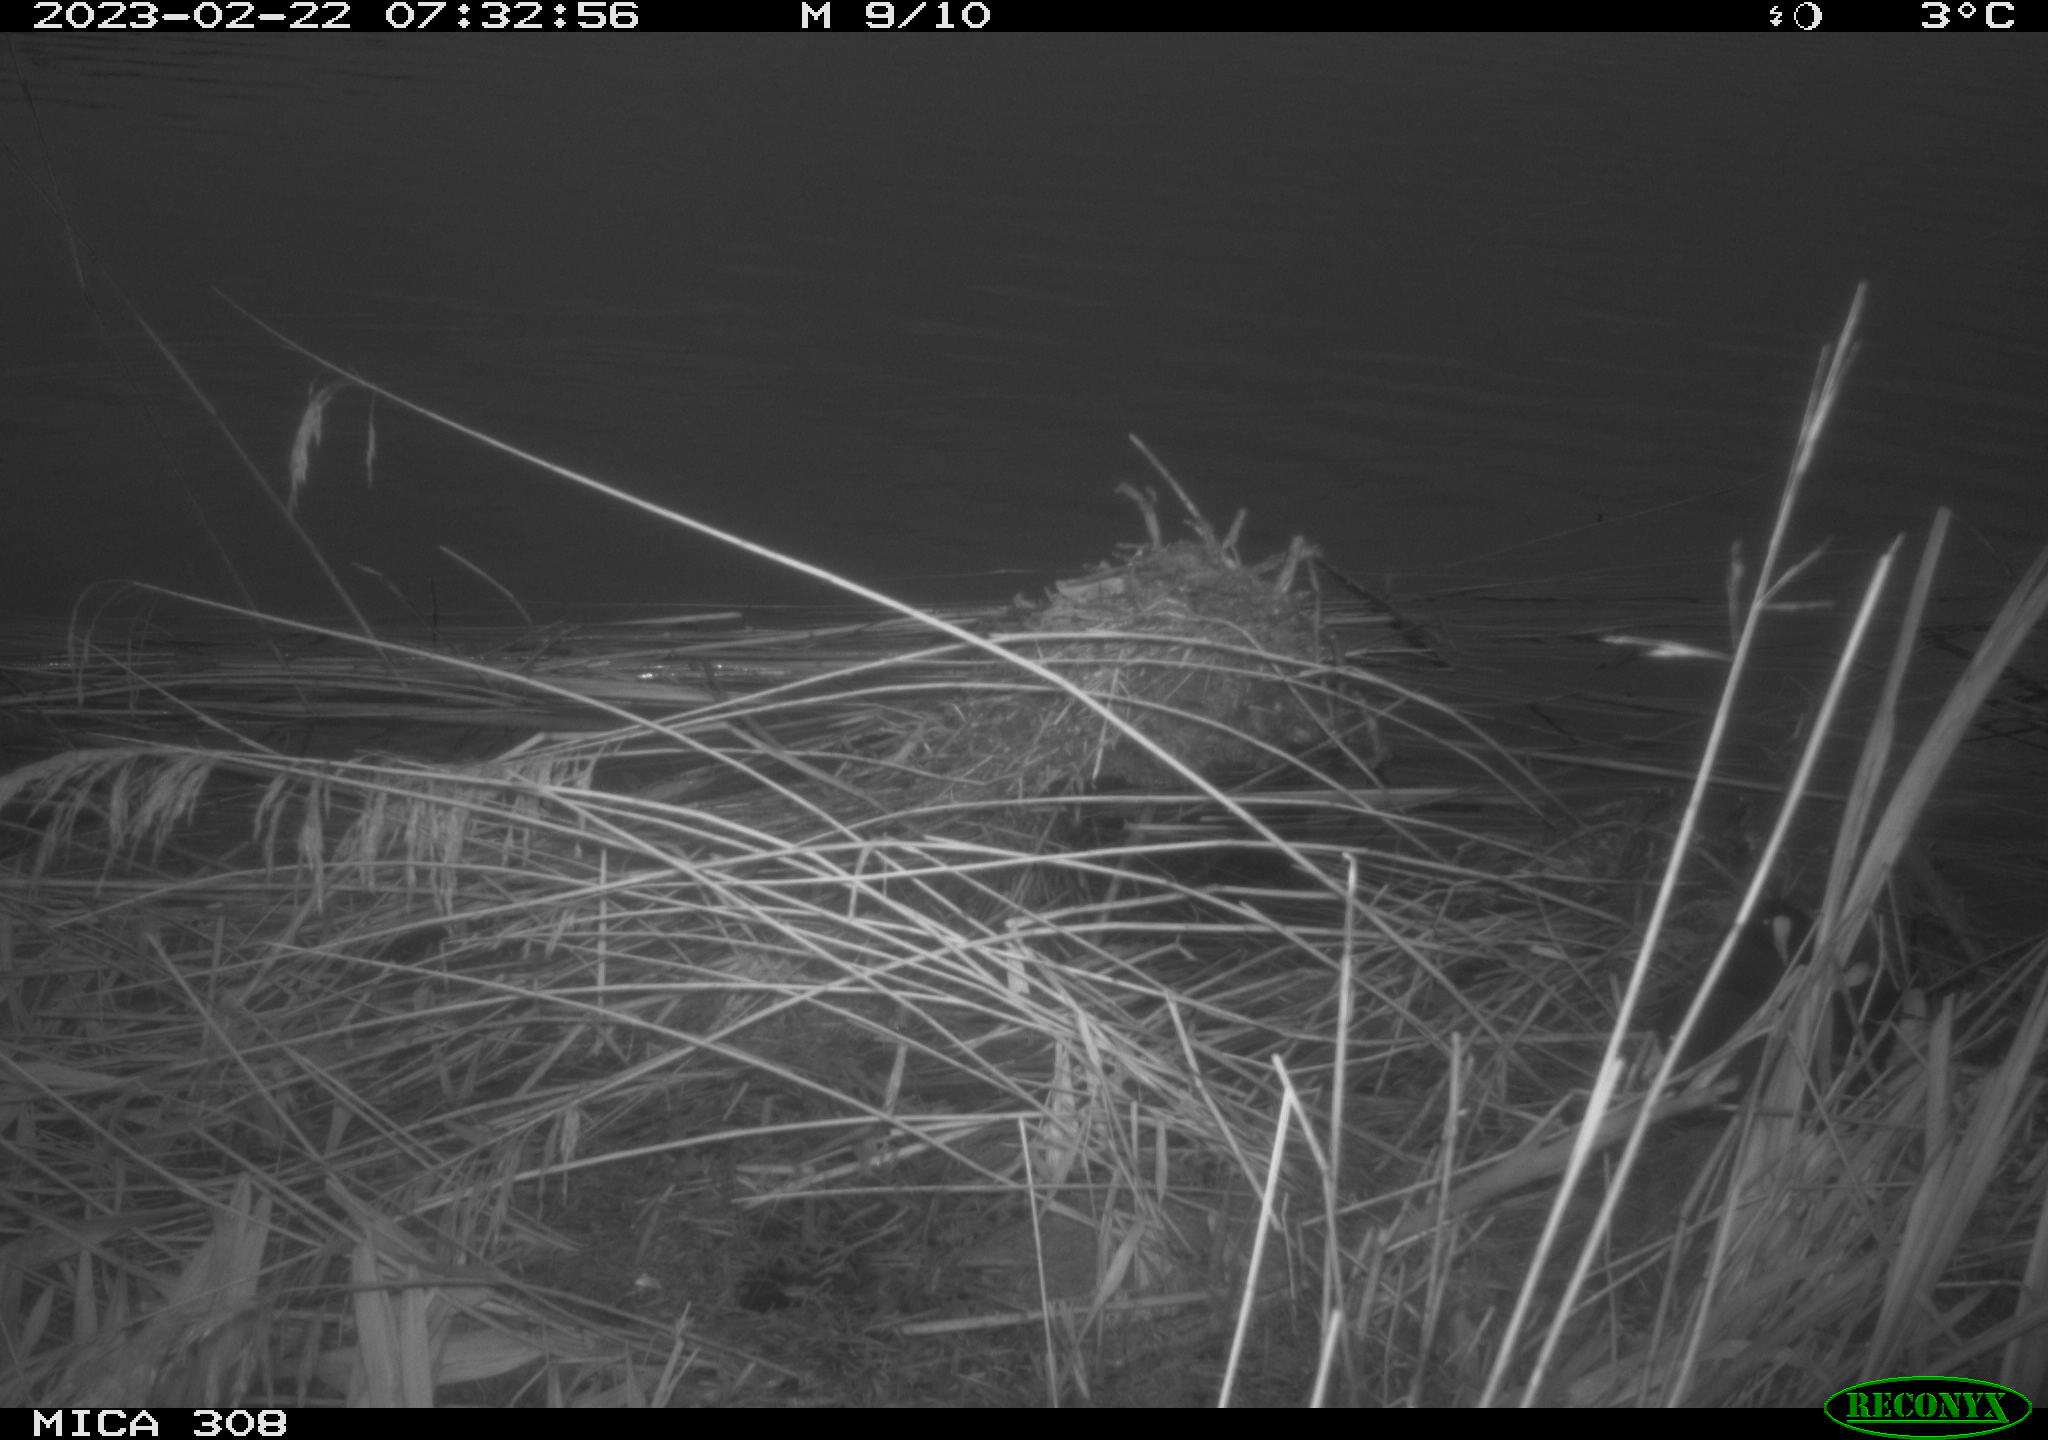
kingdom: Animalia
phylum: Chordata
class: Mammalia
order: Rodentia
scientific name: Rodentia
